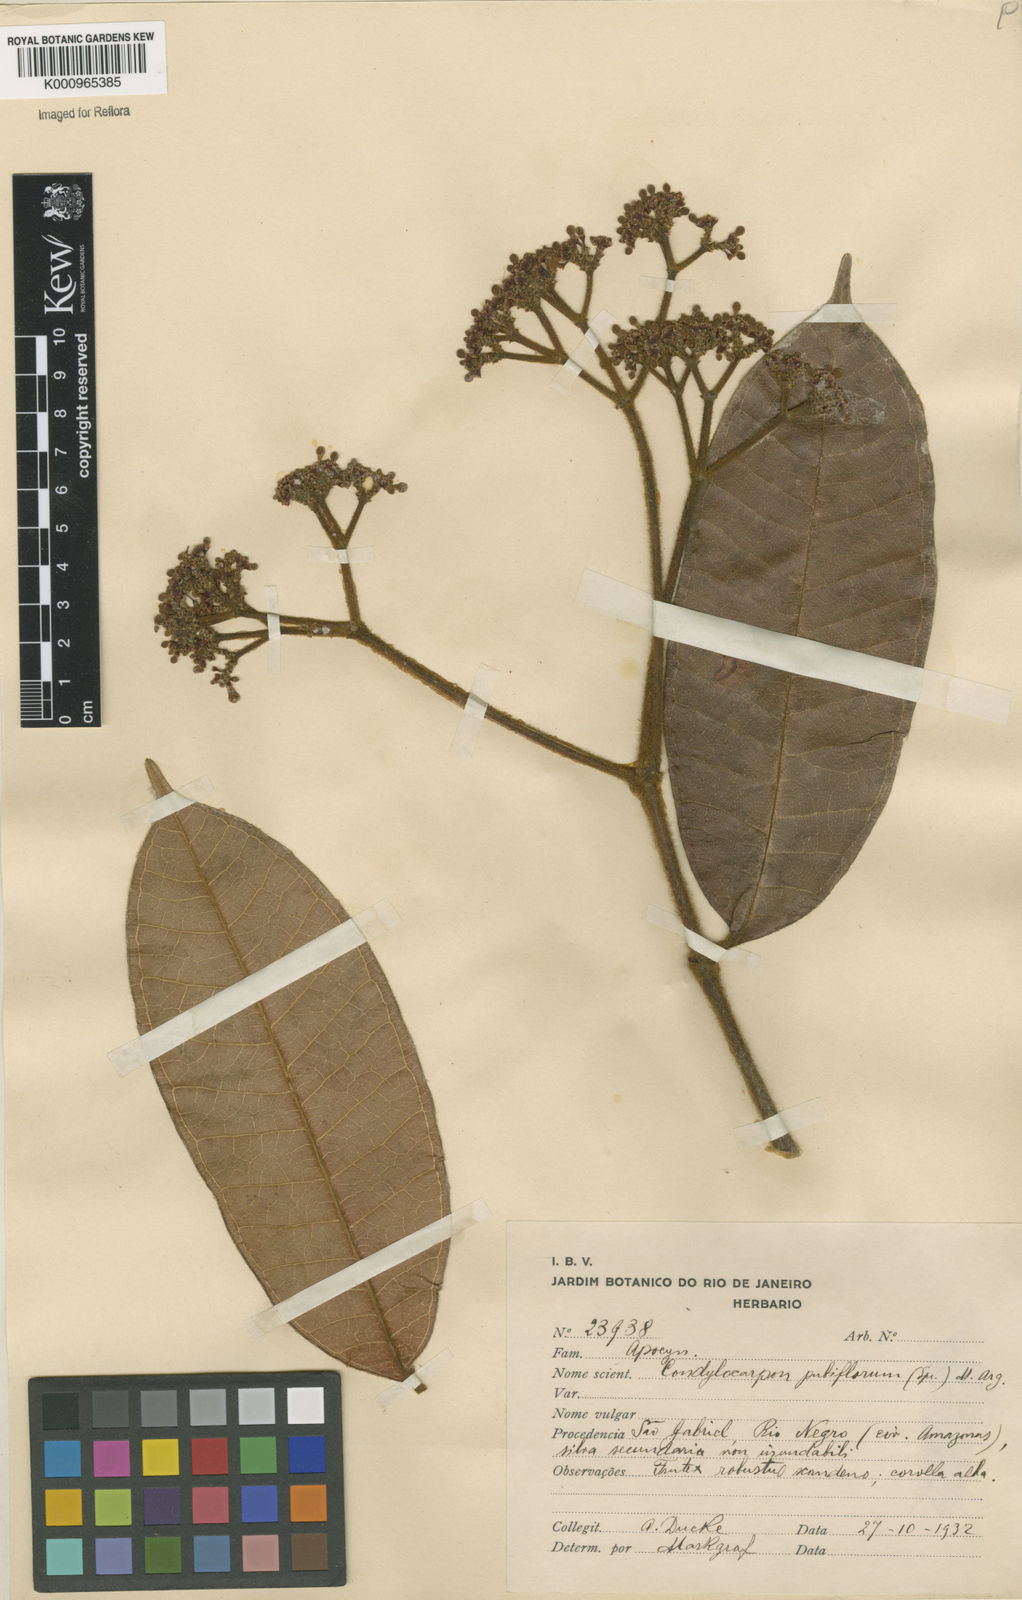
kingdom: Plantae
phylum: Tracheophyta
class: Magnoliopsida
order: Gentianales
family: Apocynaceae
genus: Condylocarpon
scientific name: Condylocarpon
